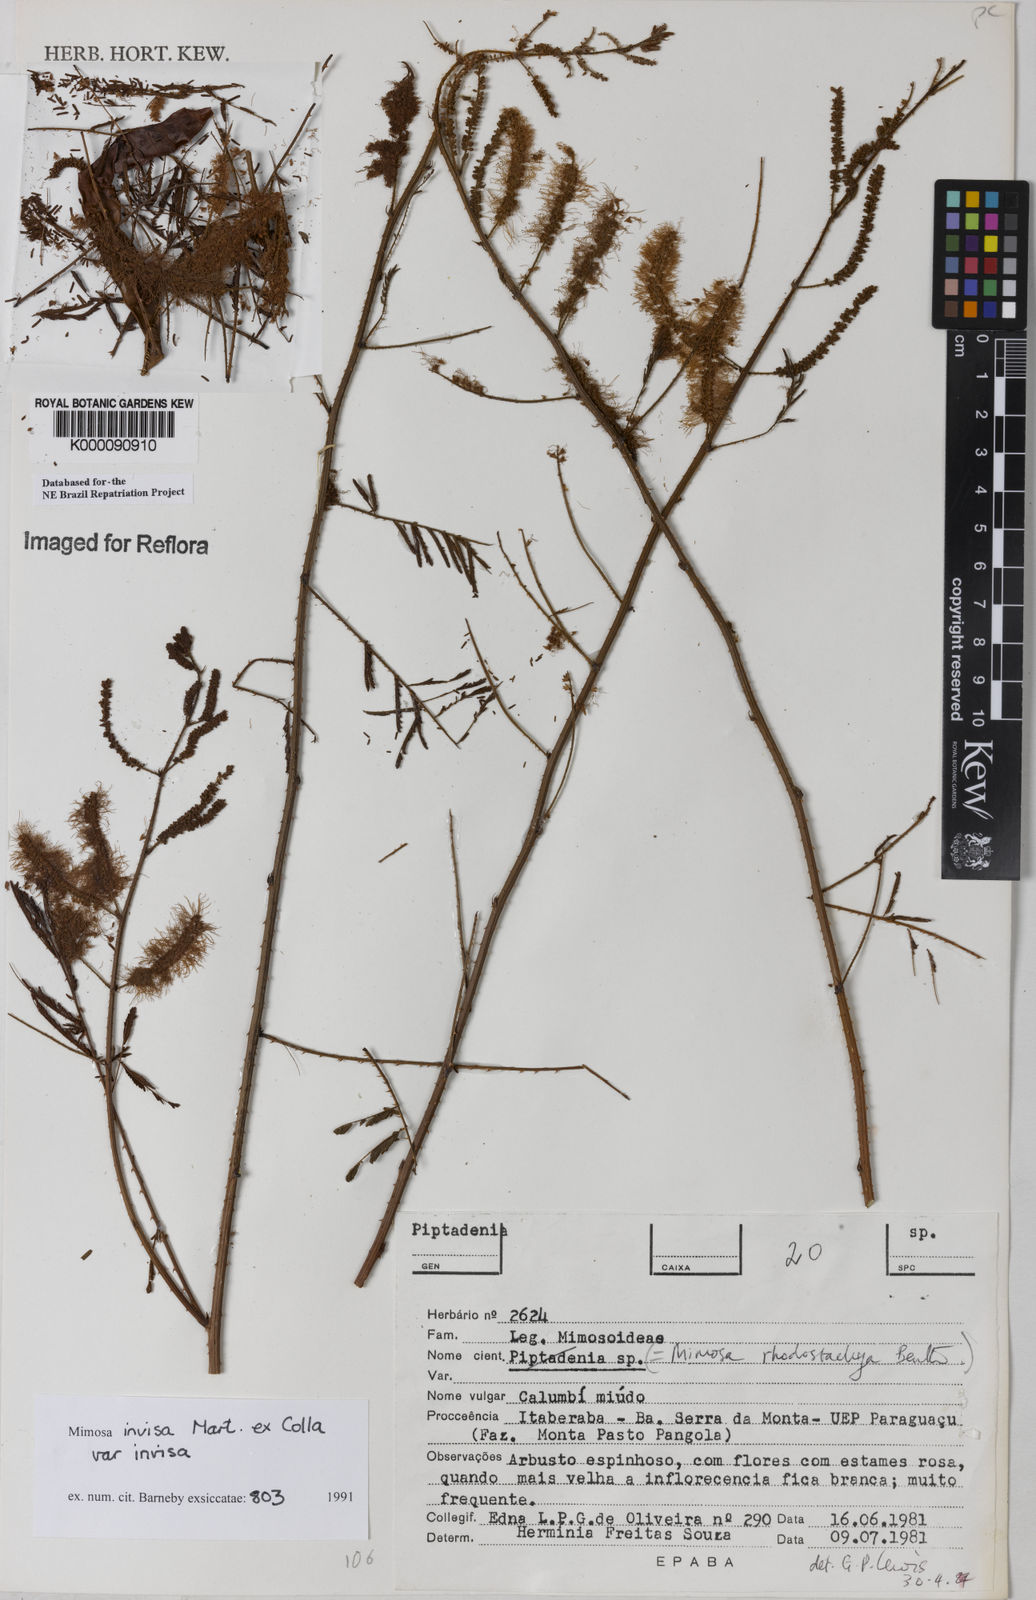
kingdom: Plantae
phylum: Tracheophyta
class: Magnoliopsida
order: Fabales
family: Fabaceae
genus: Mimosa
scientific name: Mimosa invisa
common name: Creeping sensitive-plant
